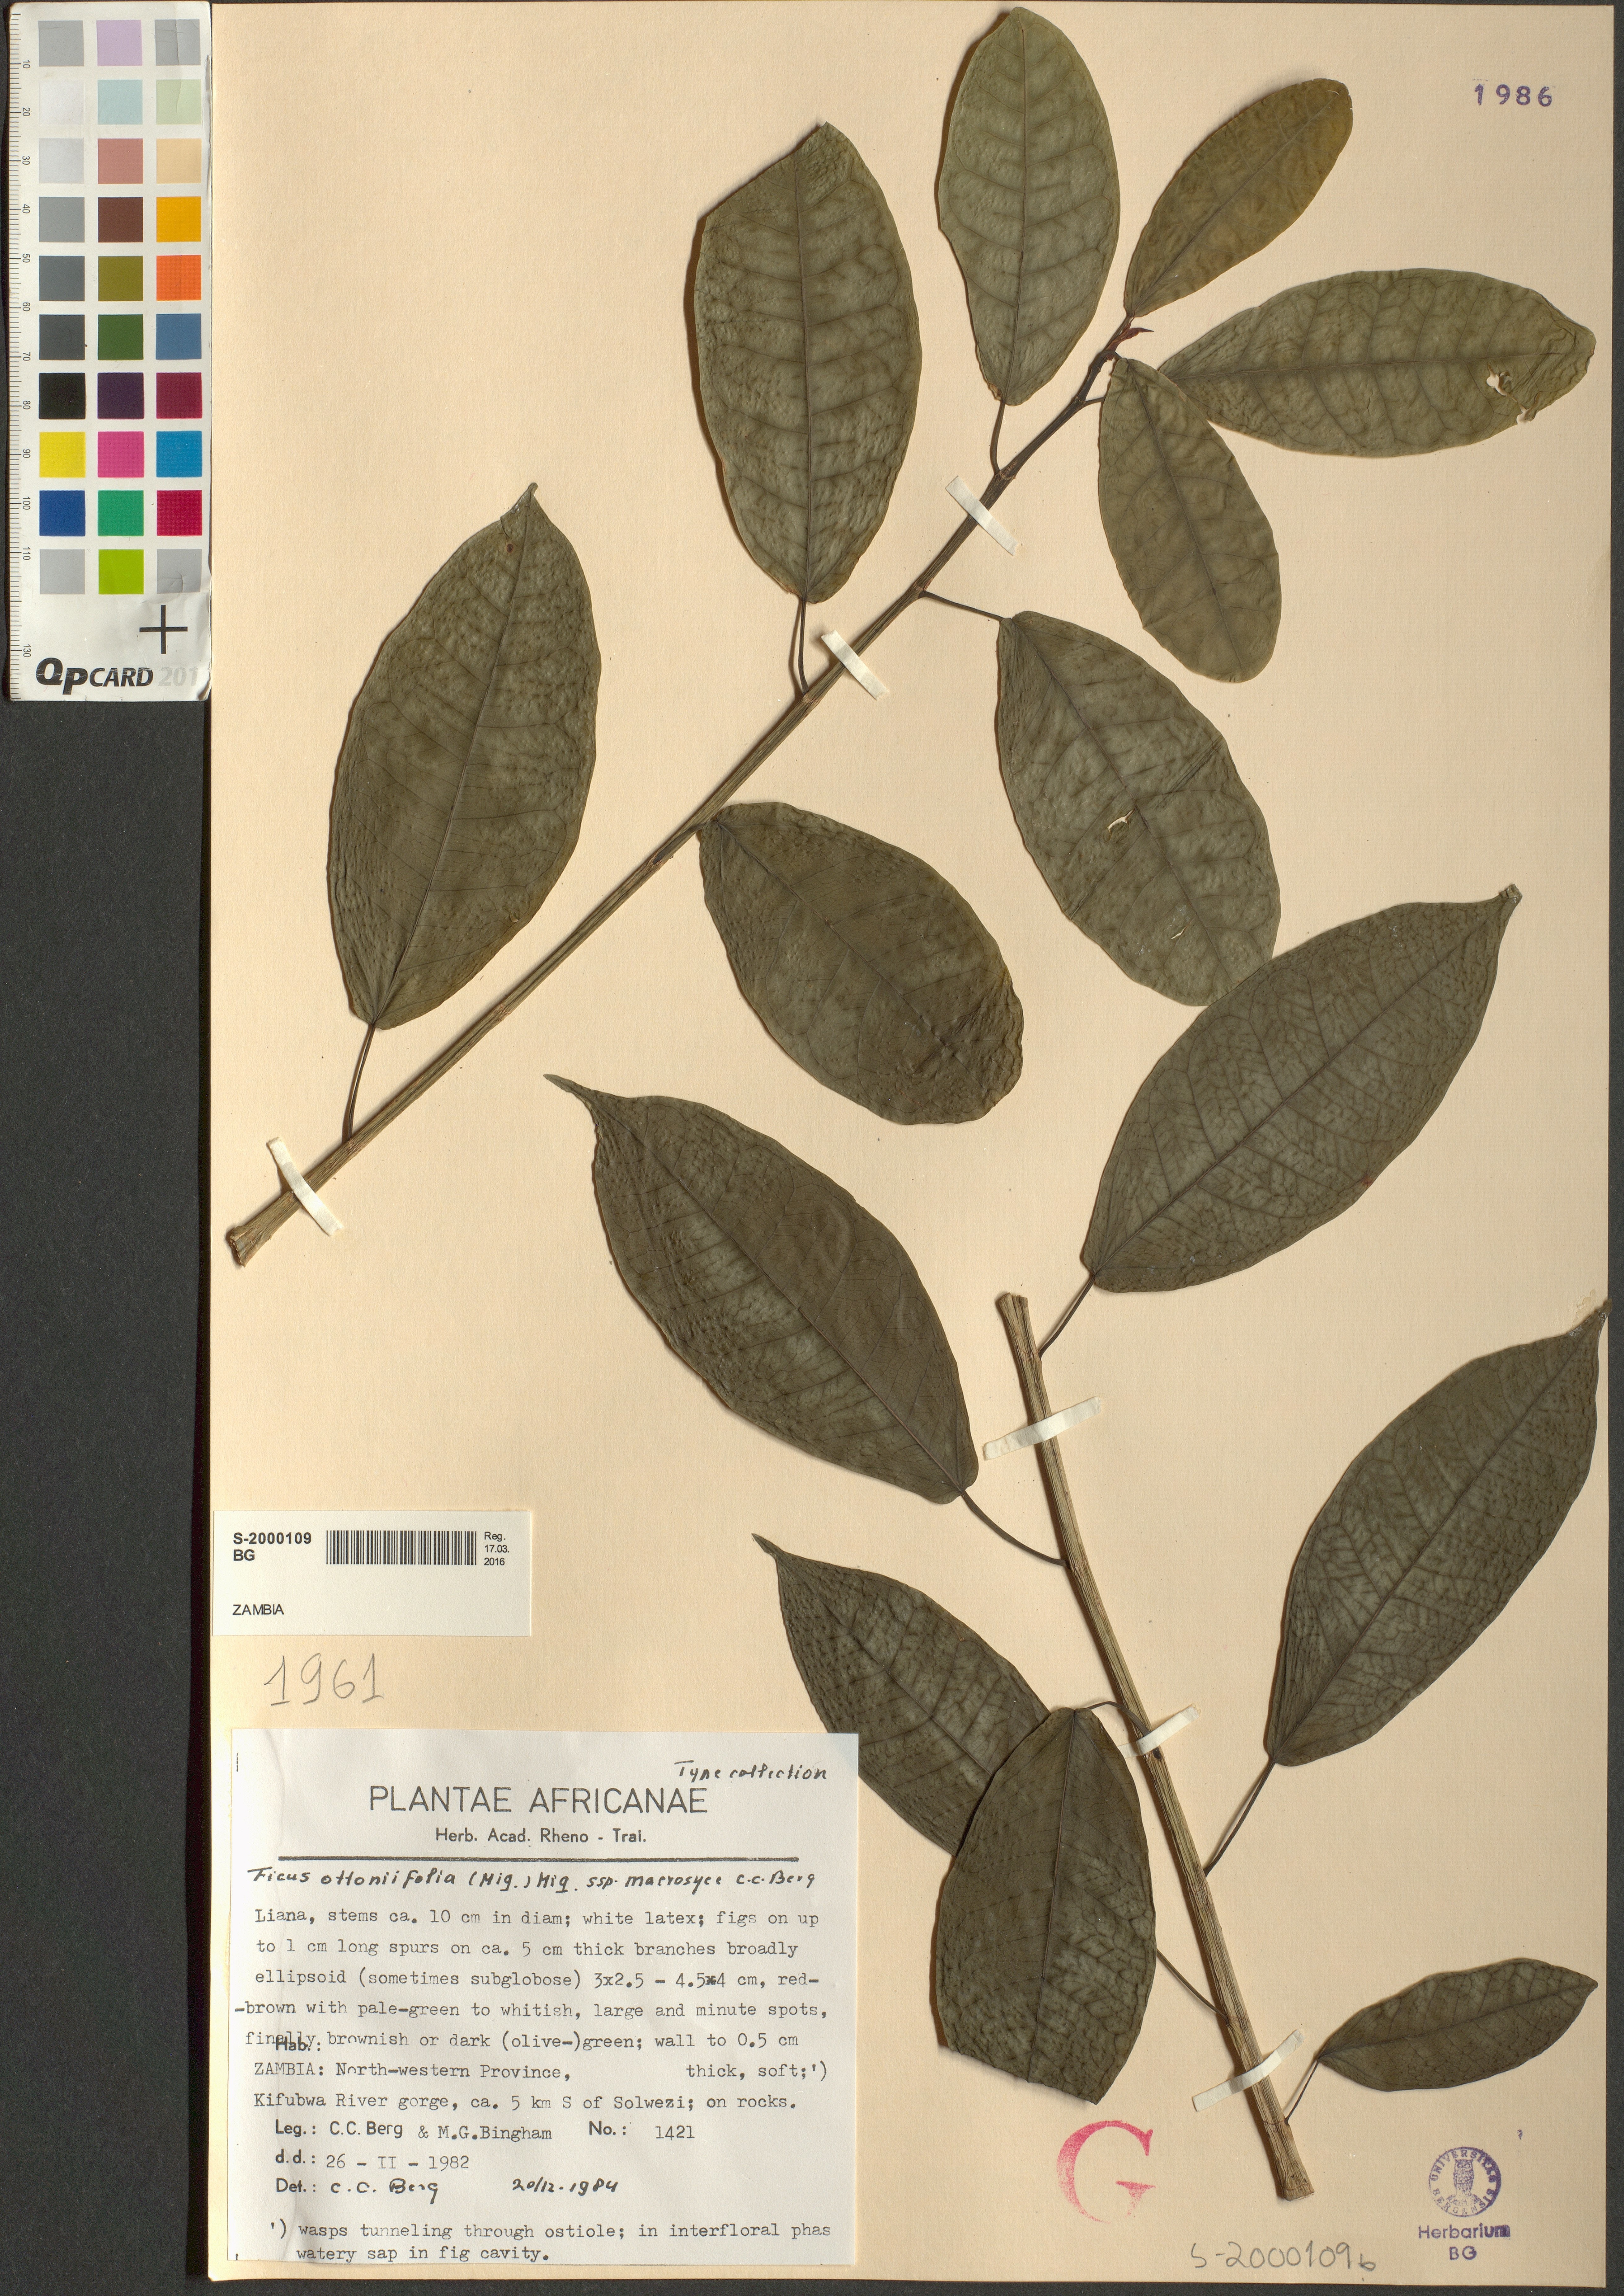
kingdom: Plantae
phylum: Tracheophyta
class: Magnoliopsida
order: Rosales
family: Moraceae
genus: Ficus
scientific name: Ficus ottoniifolia
